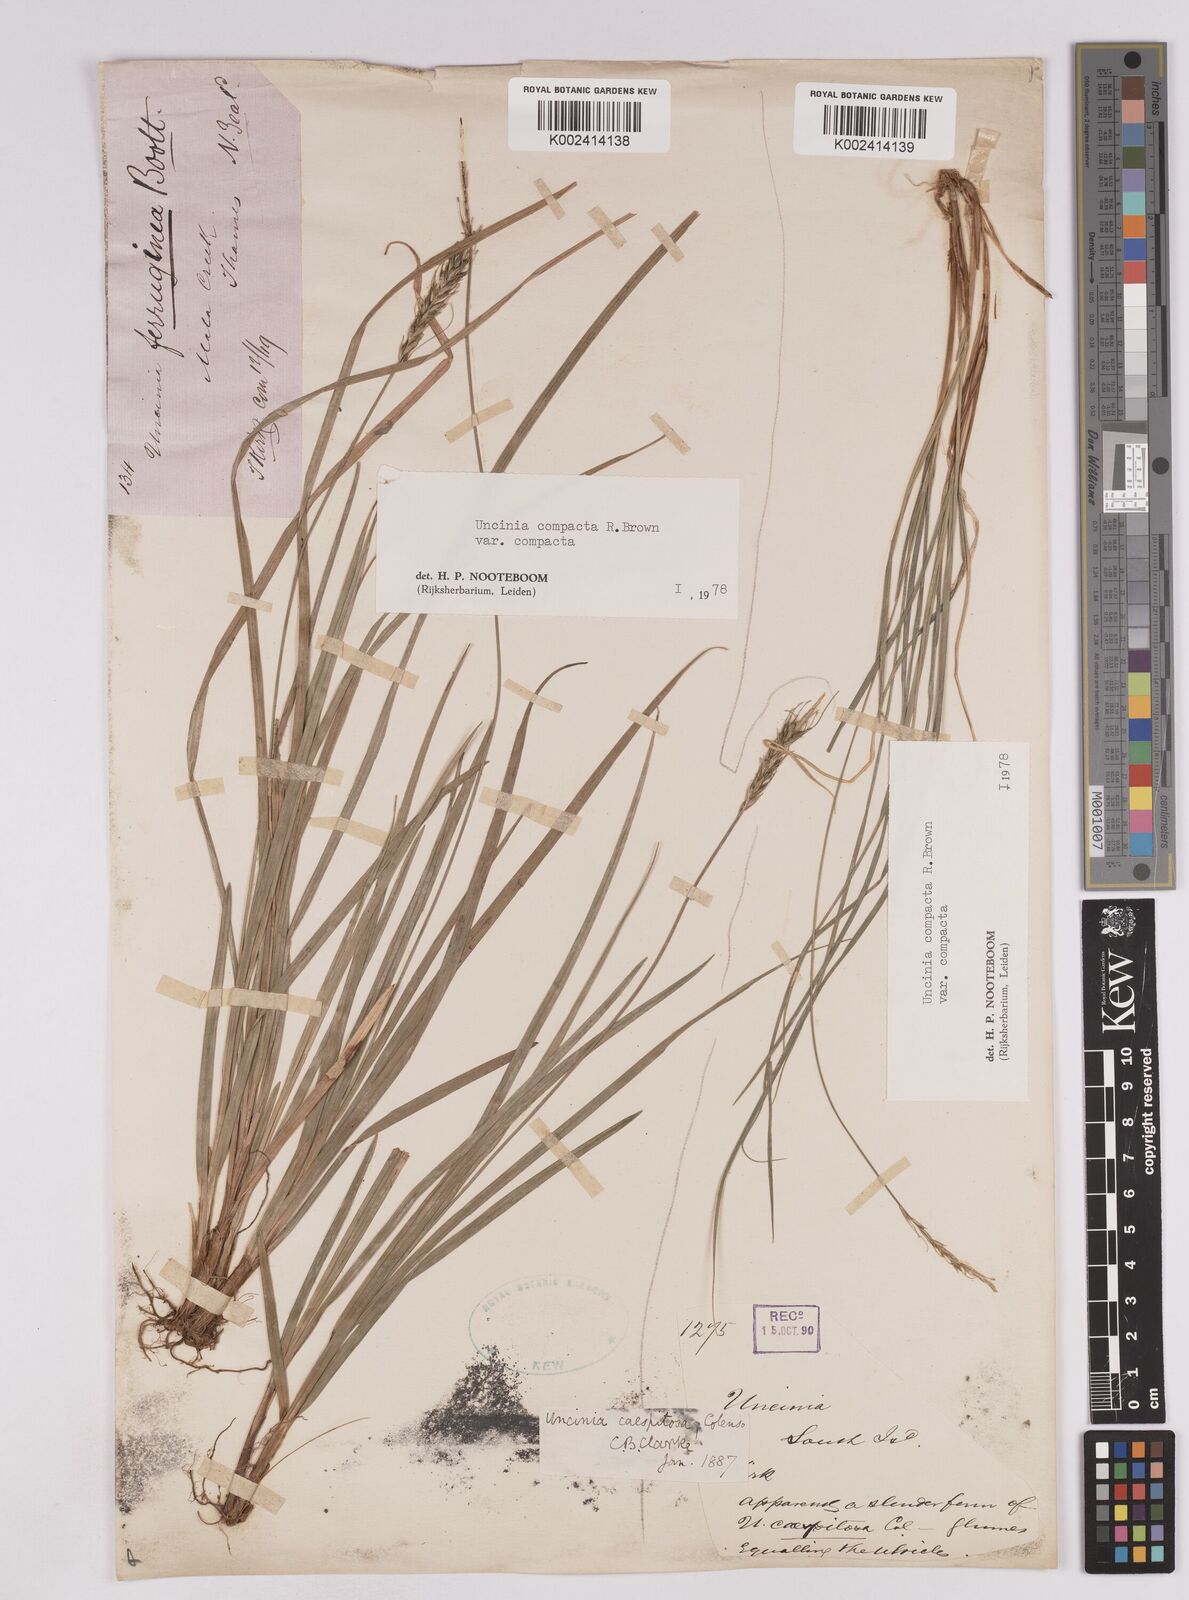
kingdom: Plantae
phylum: Tracheophyta
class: Liliopsida
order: Poales
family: Cyperaceae
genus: Carex
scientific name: Carex austrocompacta
